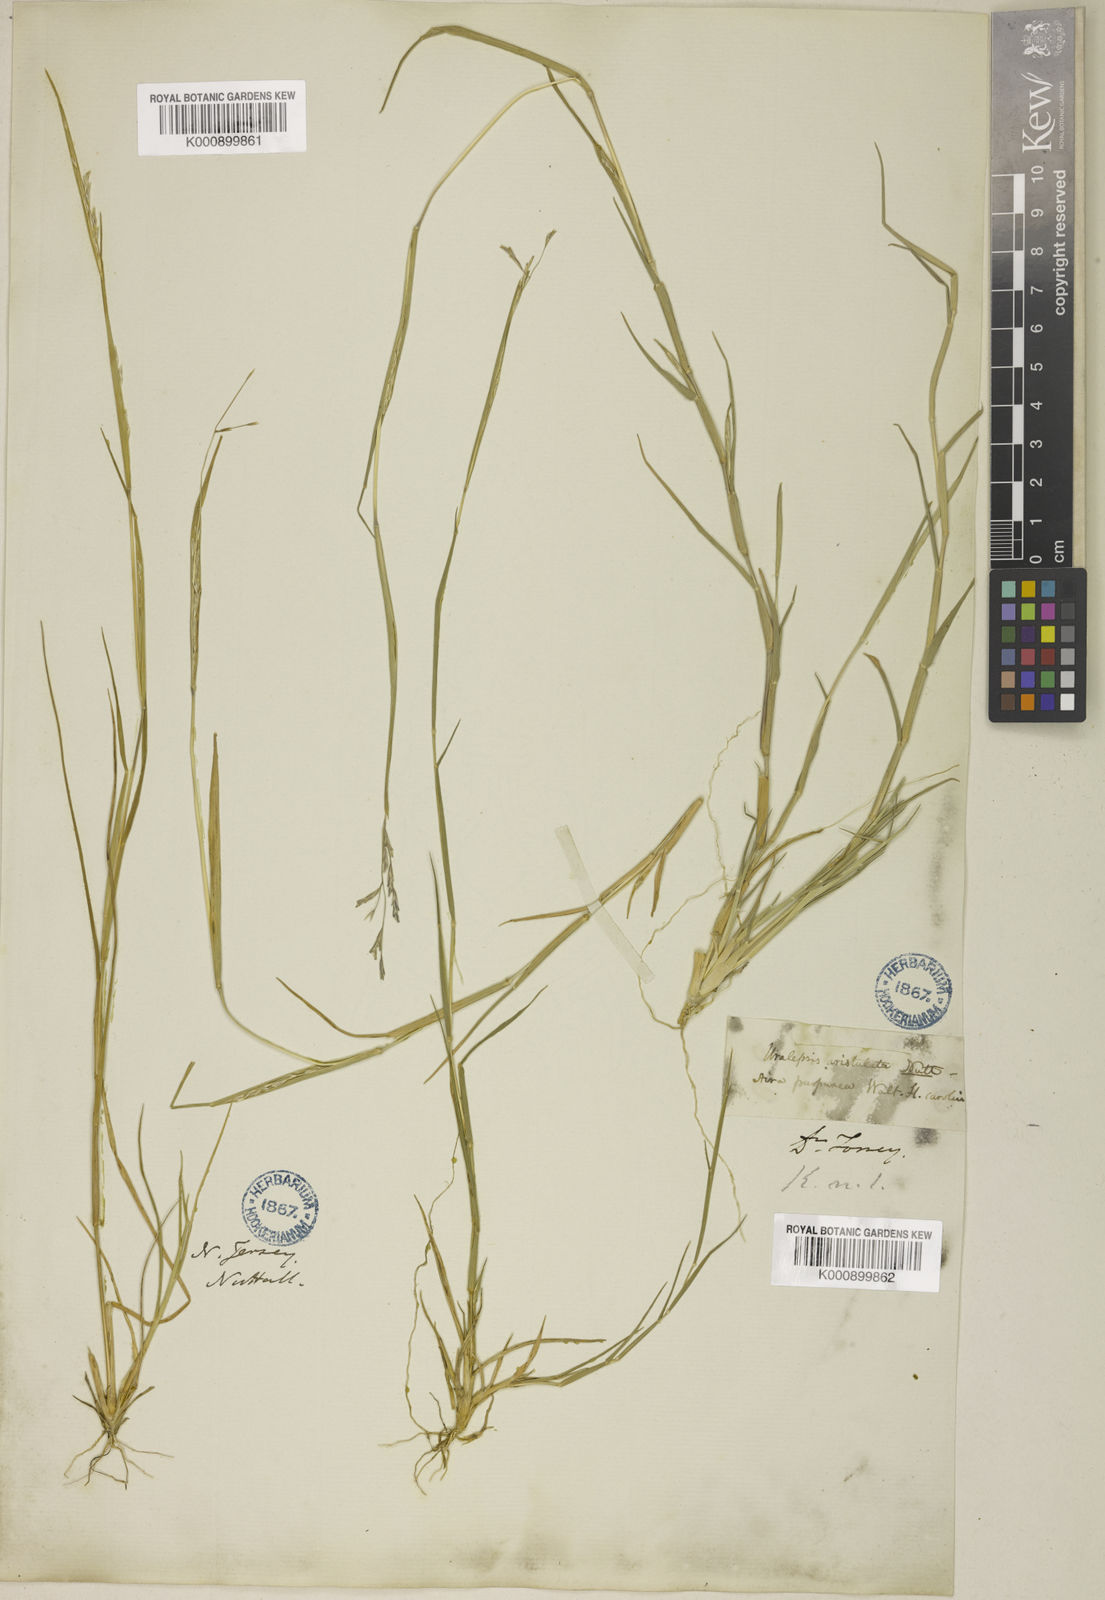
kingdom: Plantae
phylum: Tracheophyta
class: Liliopsida
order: Poales
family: Poaceae
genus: Triplasis
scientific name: Triplasis purpurea
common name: Purple sand grass
